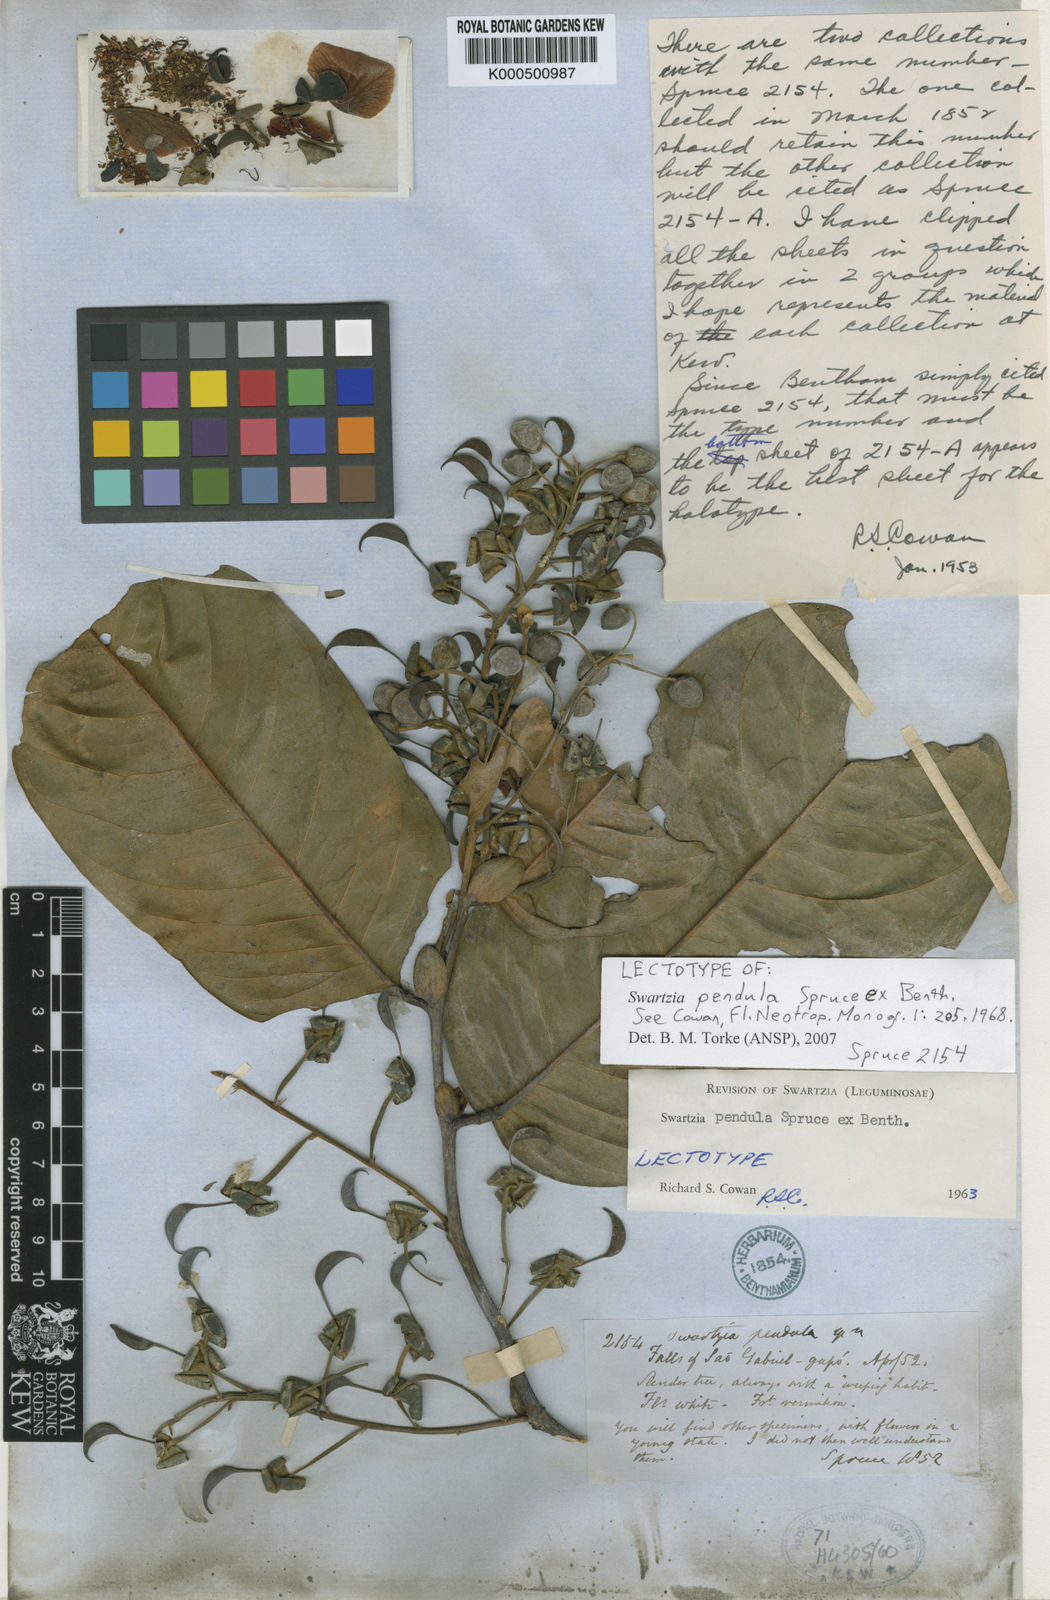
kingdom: Plantae
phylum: Tracheophyta
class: Magnoliopsida
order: Fabales
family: Fabaceae
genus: Swartzia
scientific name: Swartzia pendula
